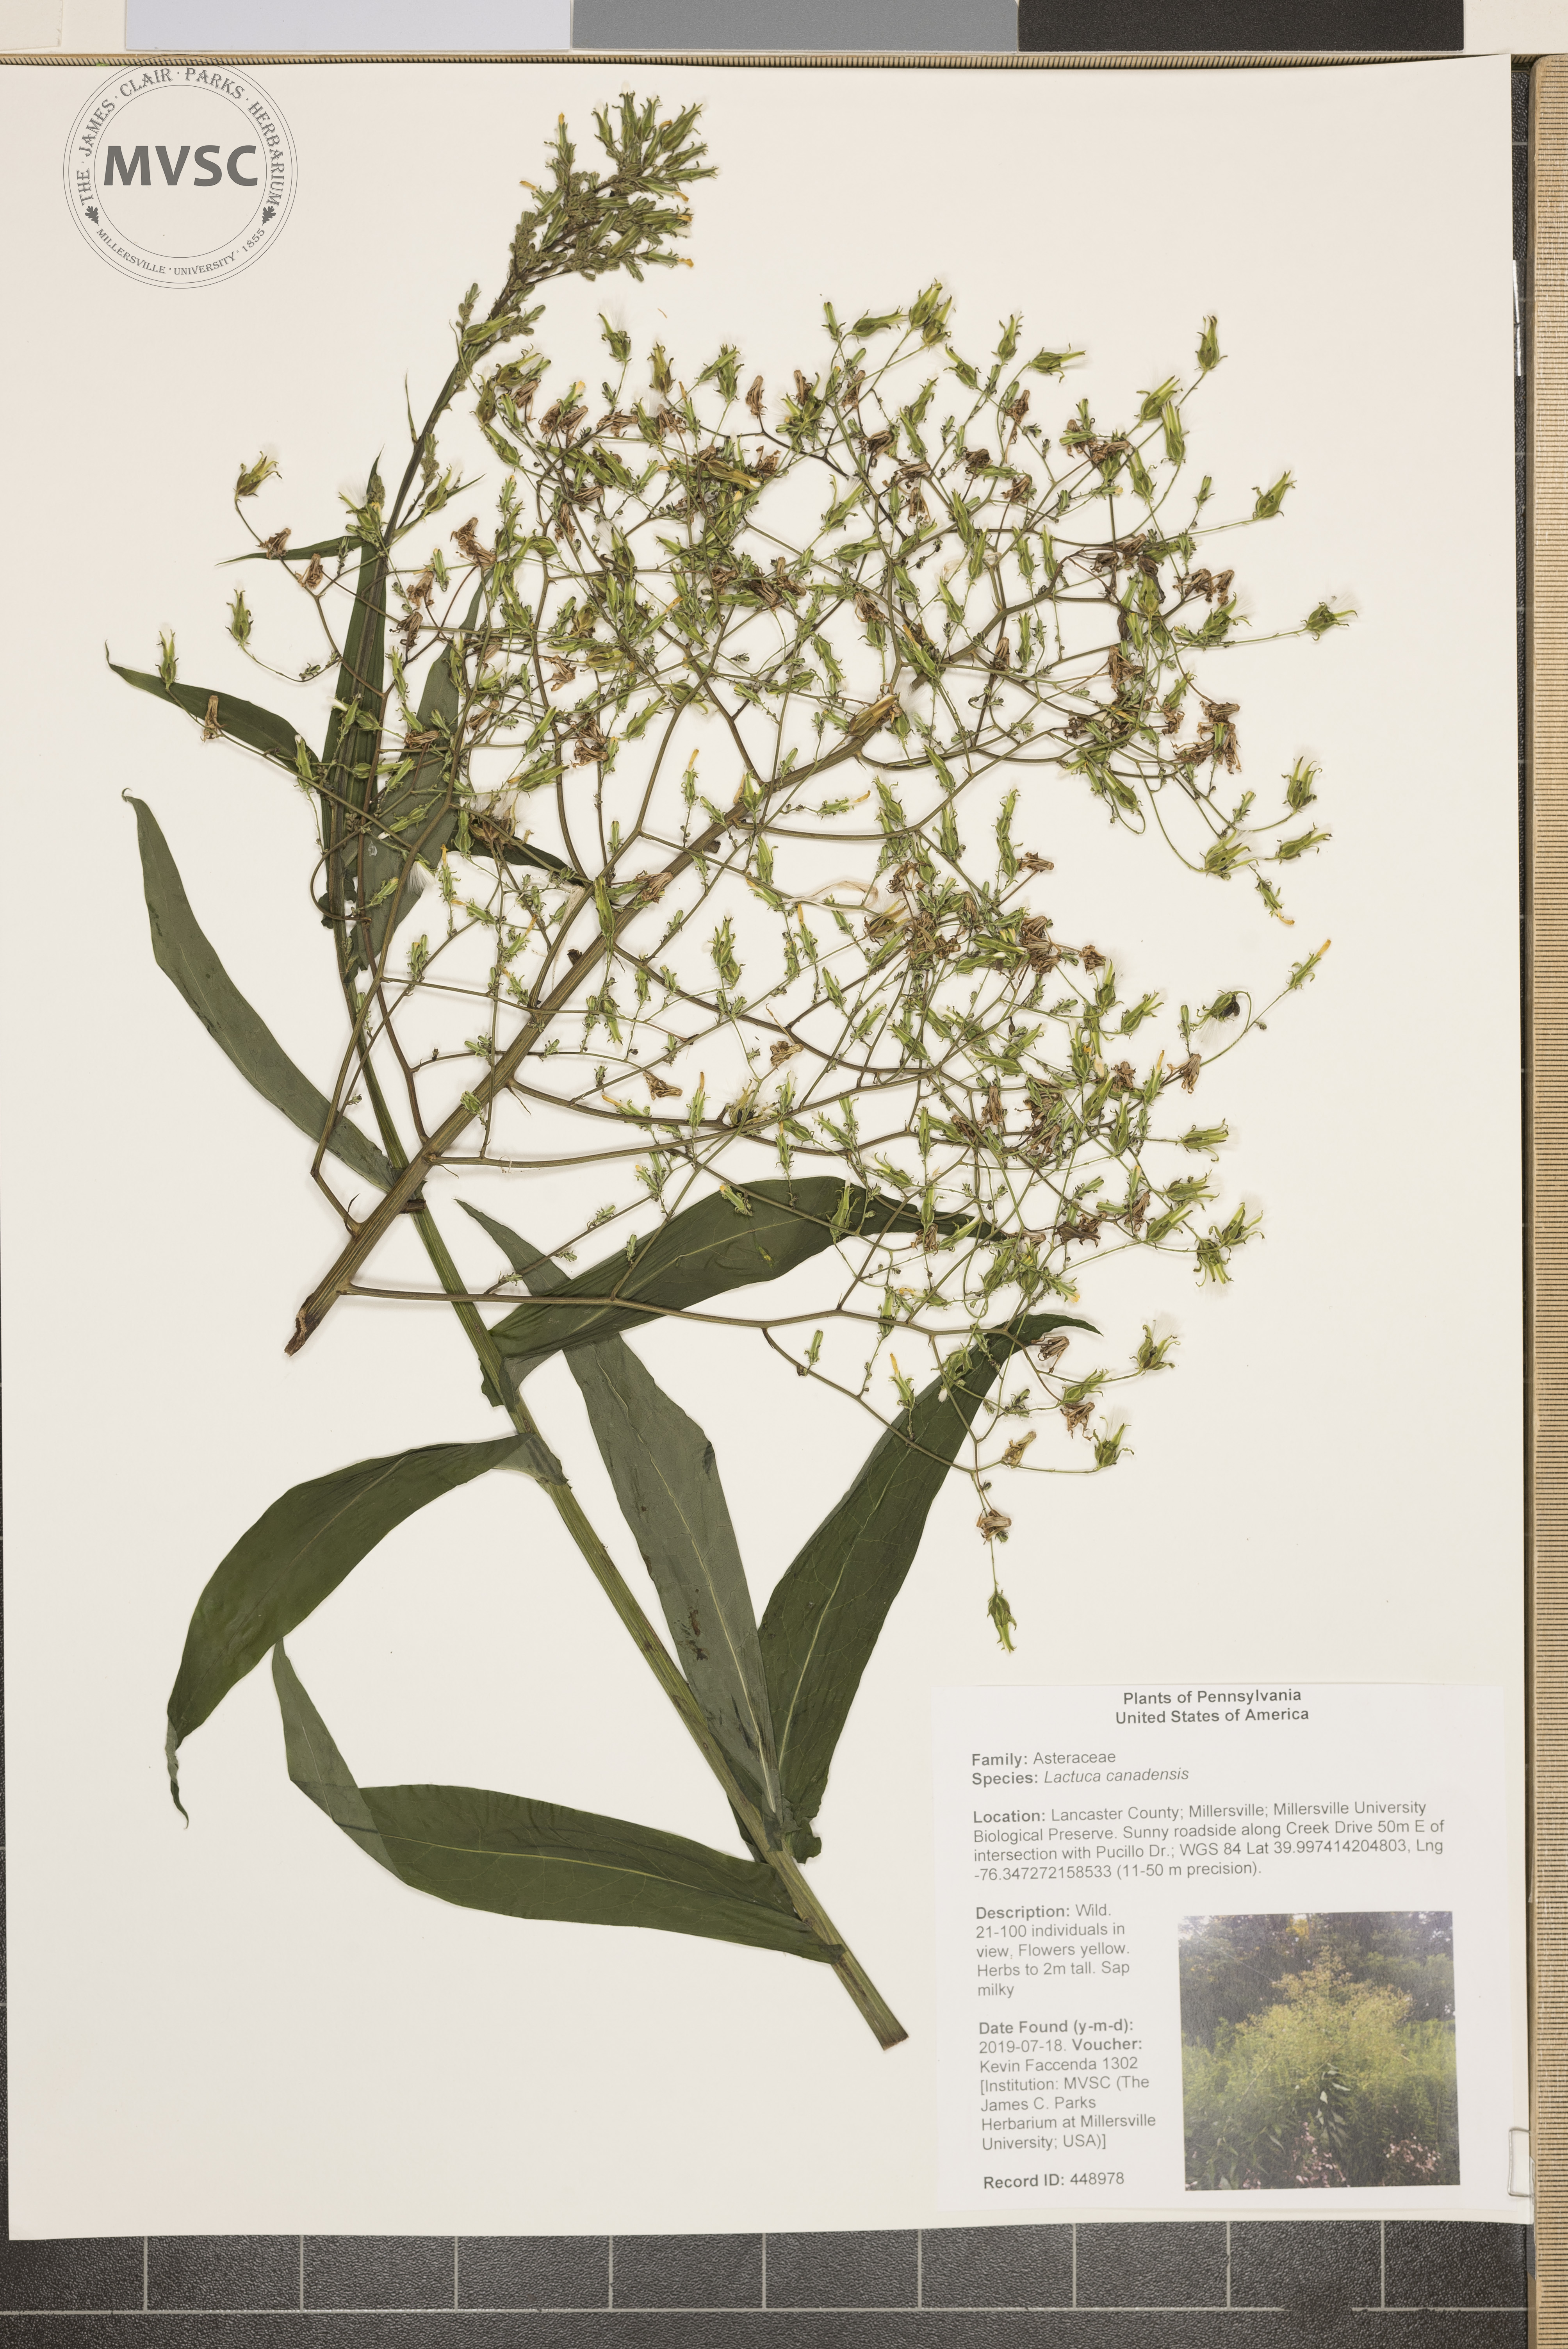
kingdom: Plantae
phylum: Tracheophyta
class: Magnoliopsida
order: Asterales
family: Asteraceae
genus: Lactuca
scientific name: Lactuca canadensis
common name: Canada lettuce
